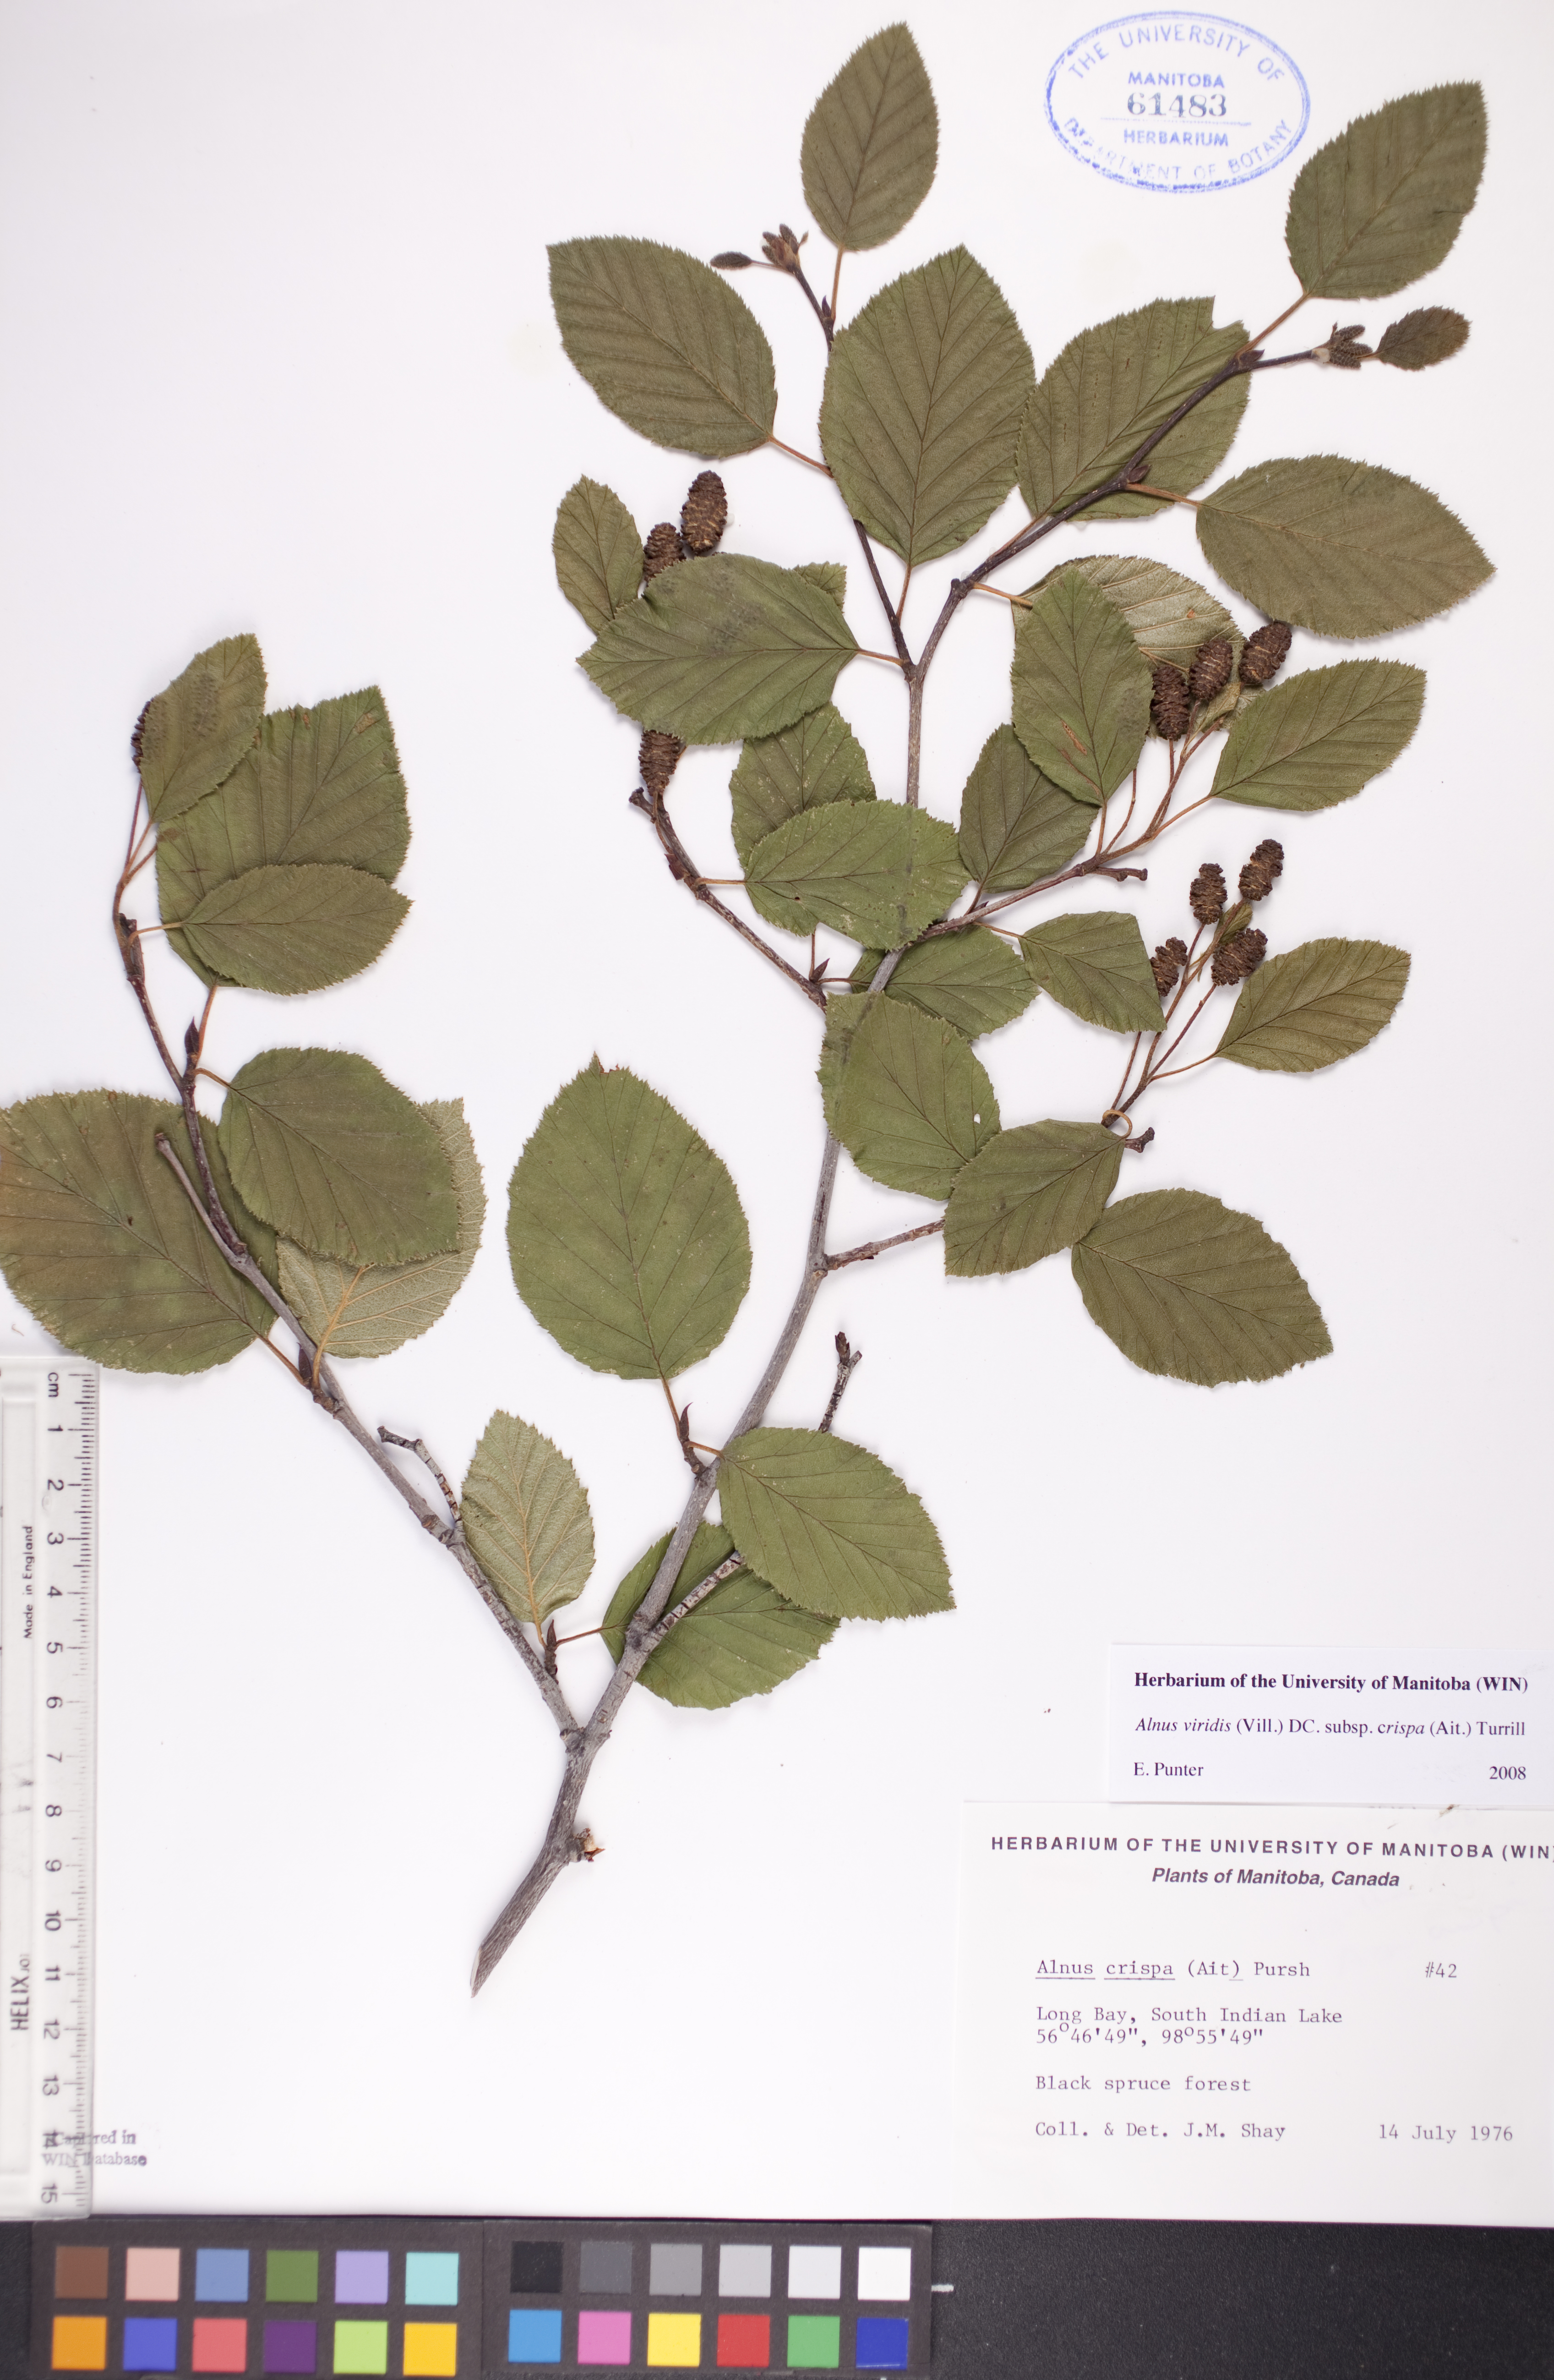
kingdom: Plantae
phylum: Tracheophyta
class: Magnoliopsida
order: Fagales
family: Betulaceae
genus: Alnus
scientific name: Alnus alnobetula
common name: Green alder
